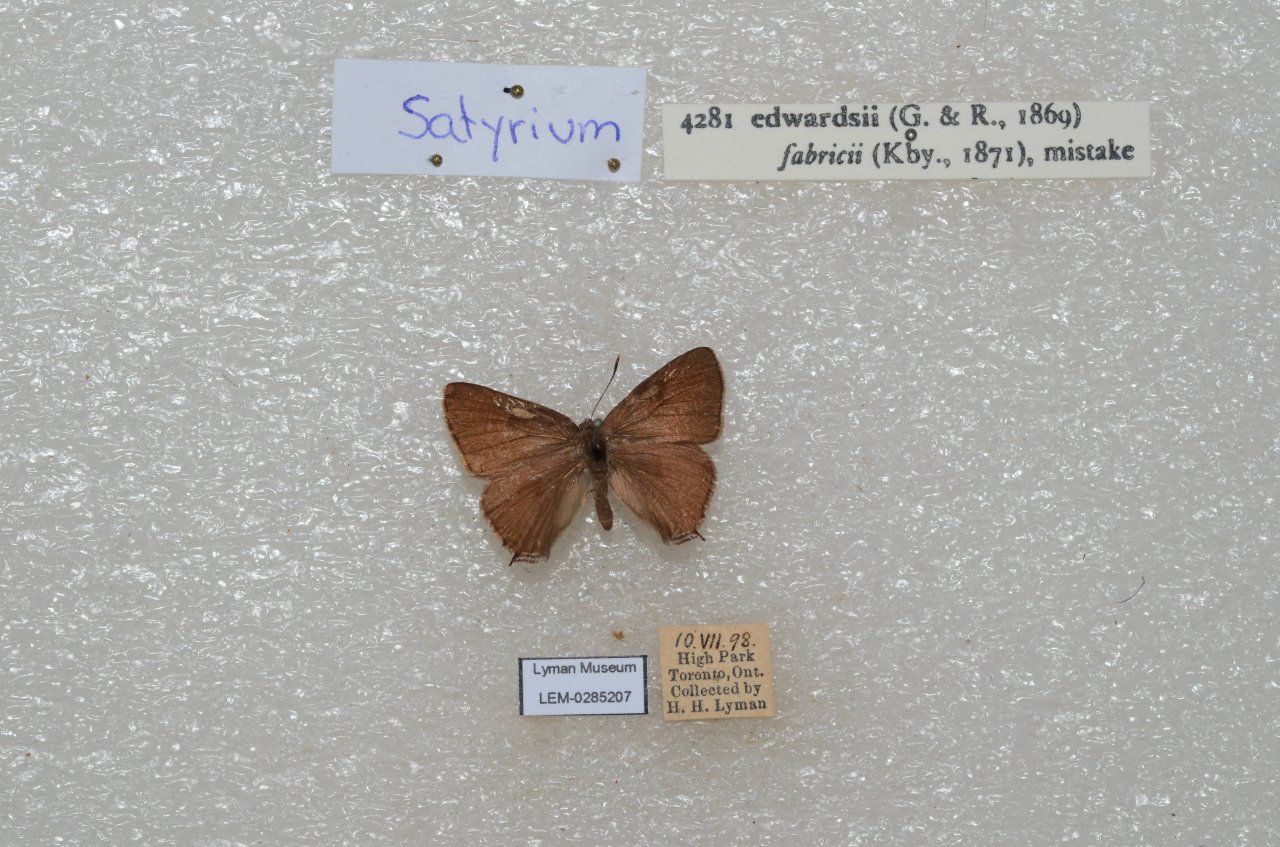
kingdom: Animalia
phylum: Arthropoda
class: Insecta
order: Lepidoptera
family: Lycaenidae
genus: Satyrium
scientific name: Satyrium edwardsii
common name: Edwards' Hairstreak
